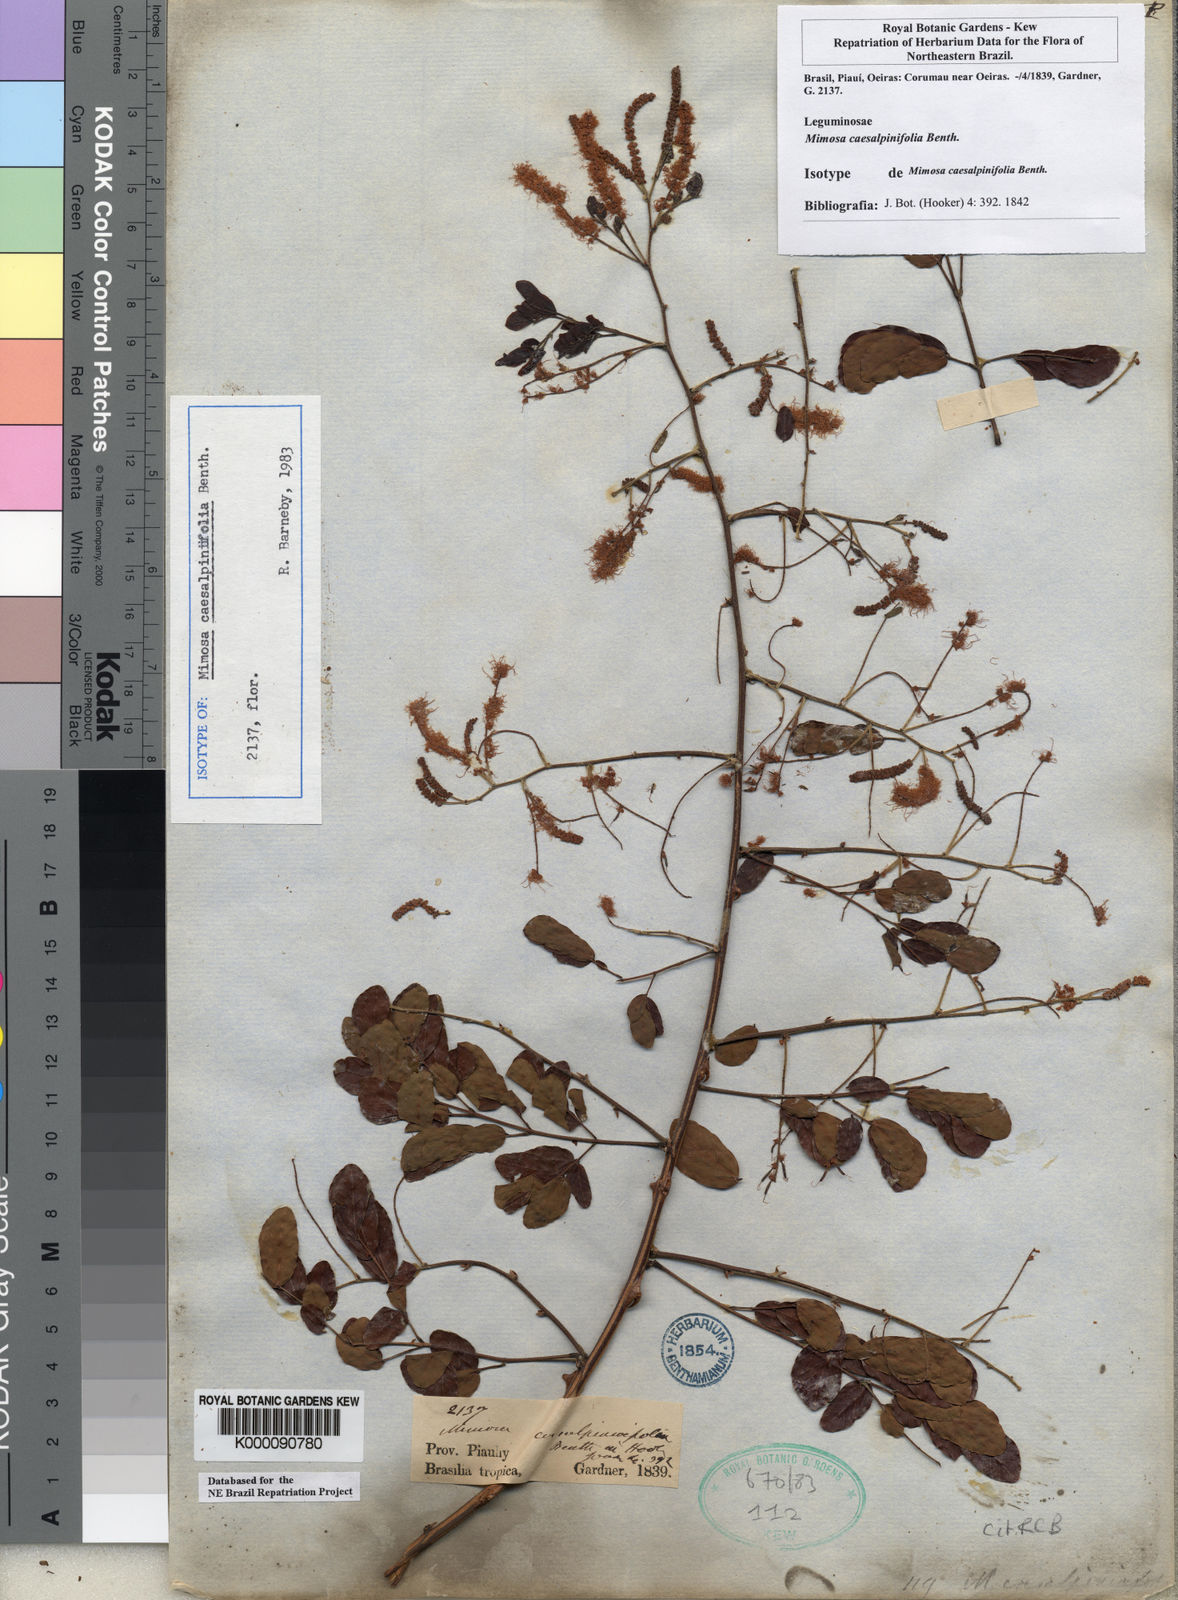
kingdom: Plantae
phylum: Tracheophyta
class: Magnoliopsida
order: Fabales
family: Fabaceae
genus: Mimosa
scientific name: Mimosa caesalpiniifolia
